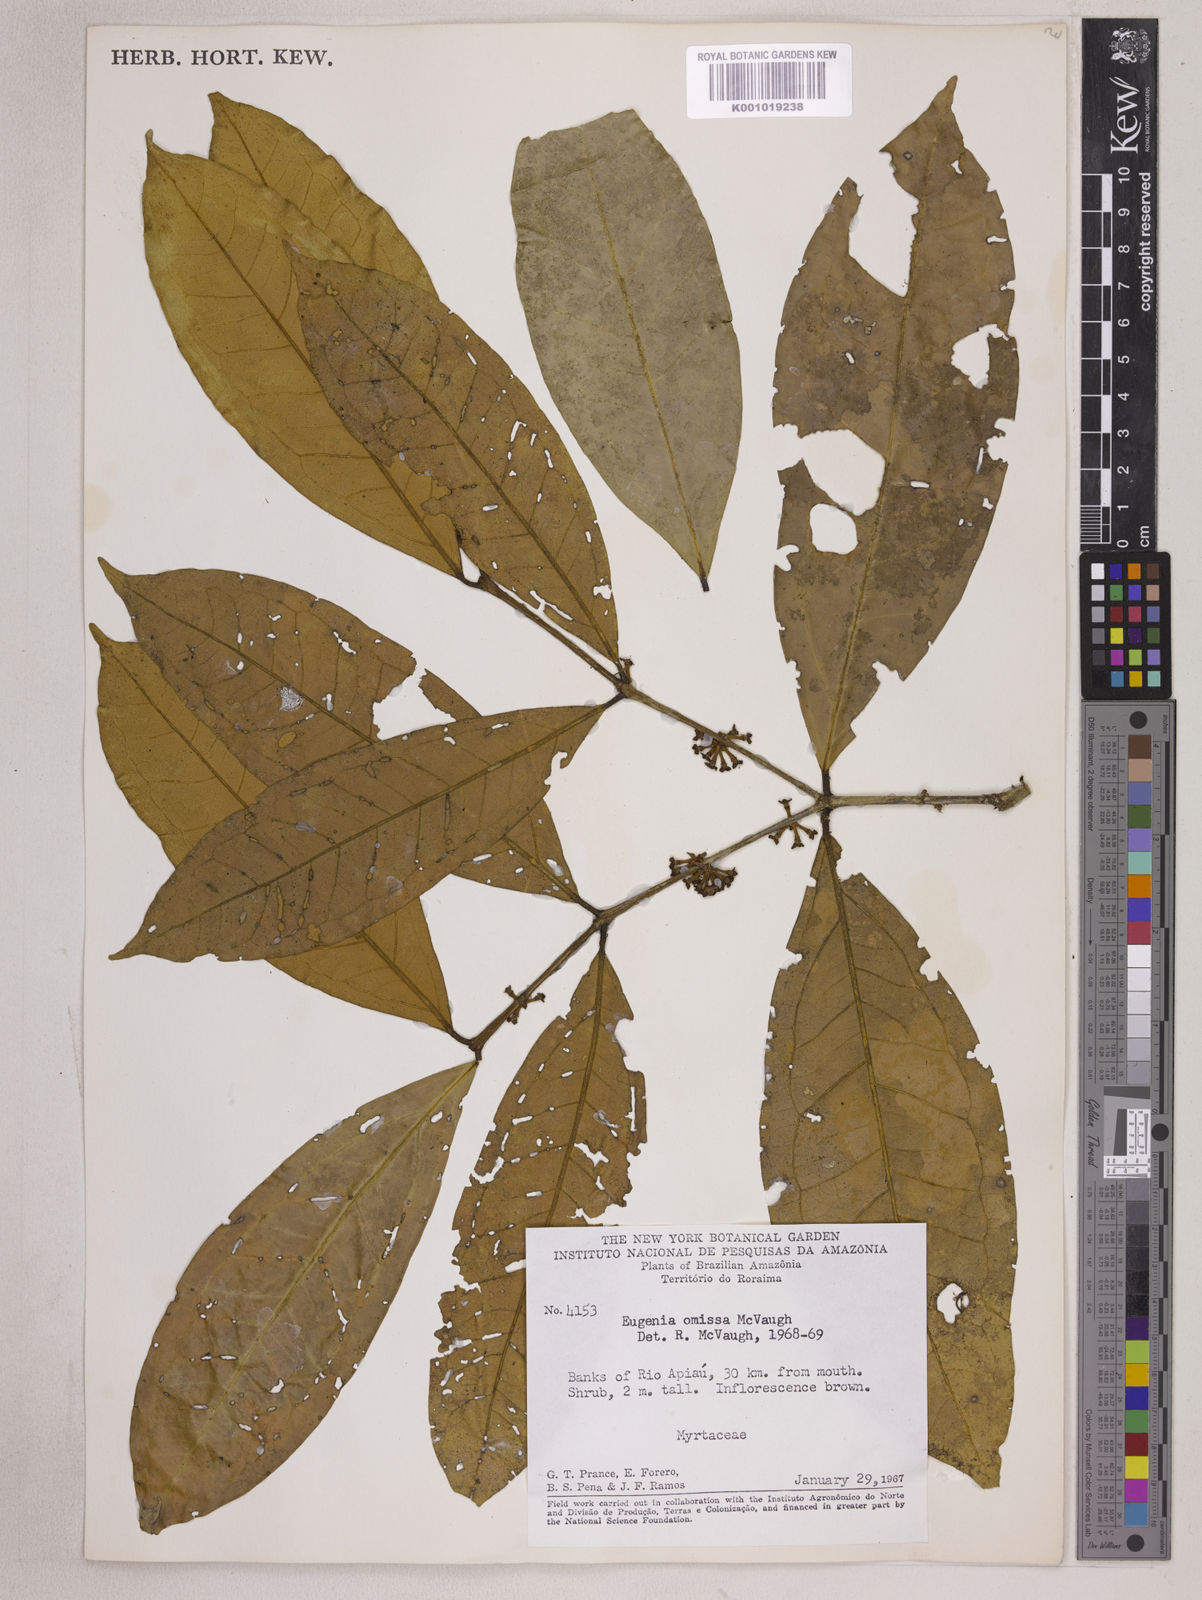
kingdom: Plantae
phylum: Tracheophyta
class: Magnoliopsida
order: Myrtales
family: Myrtaceae
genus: Eugenia
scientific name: Eugenia omissa
